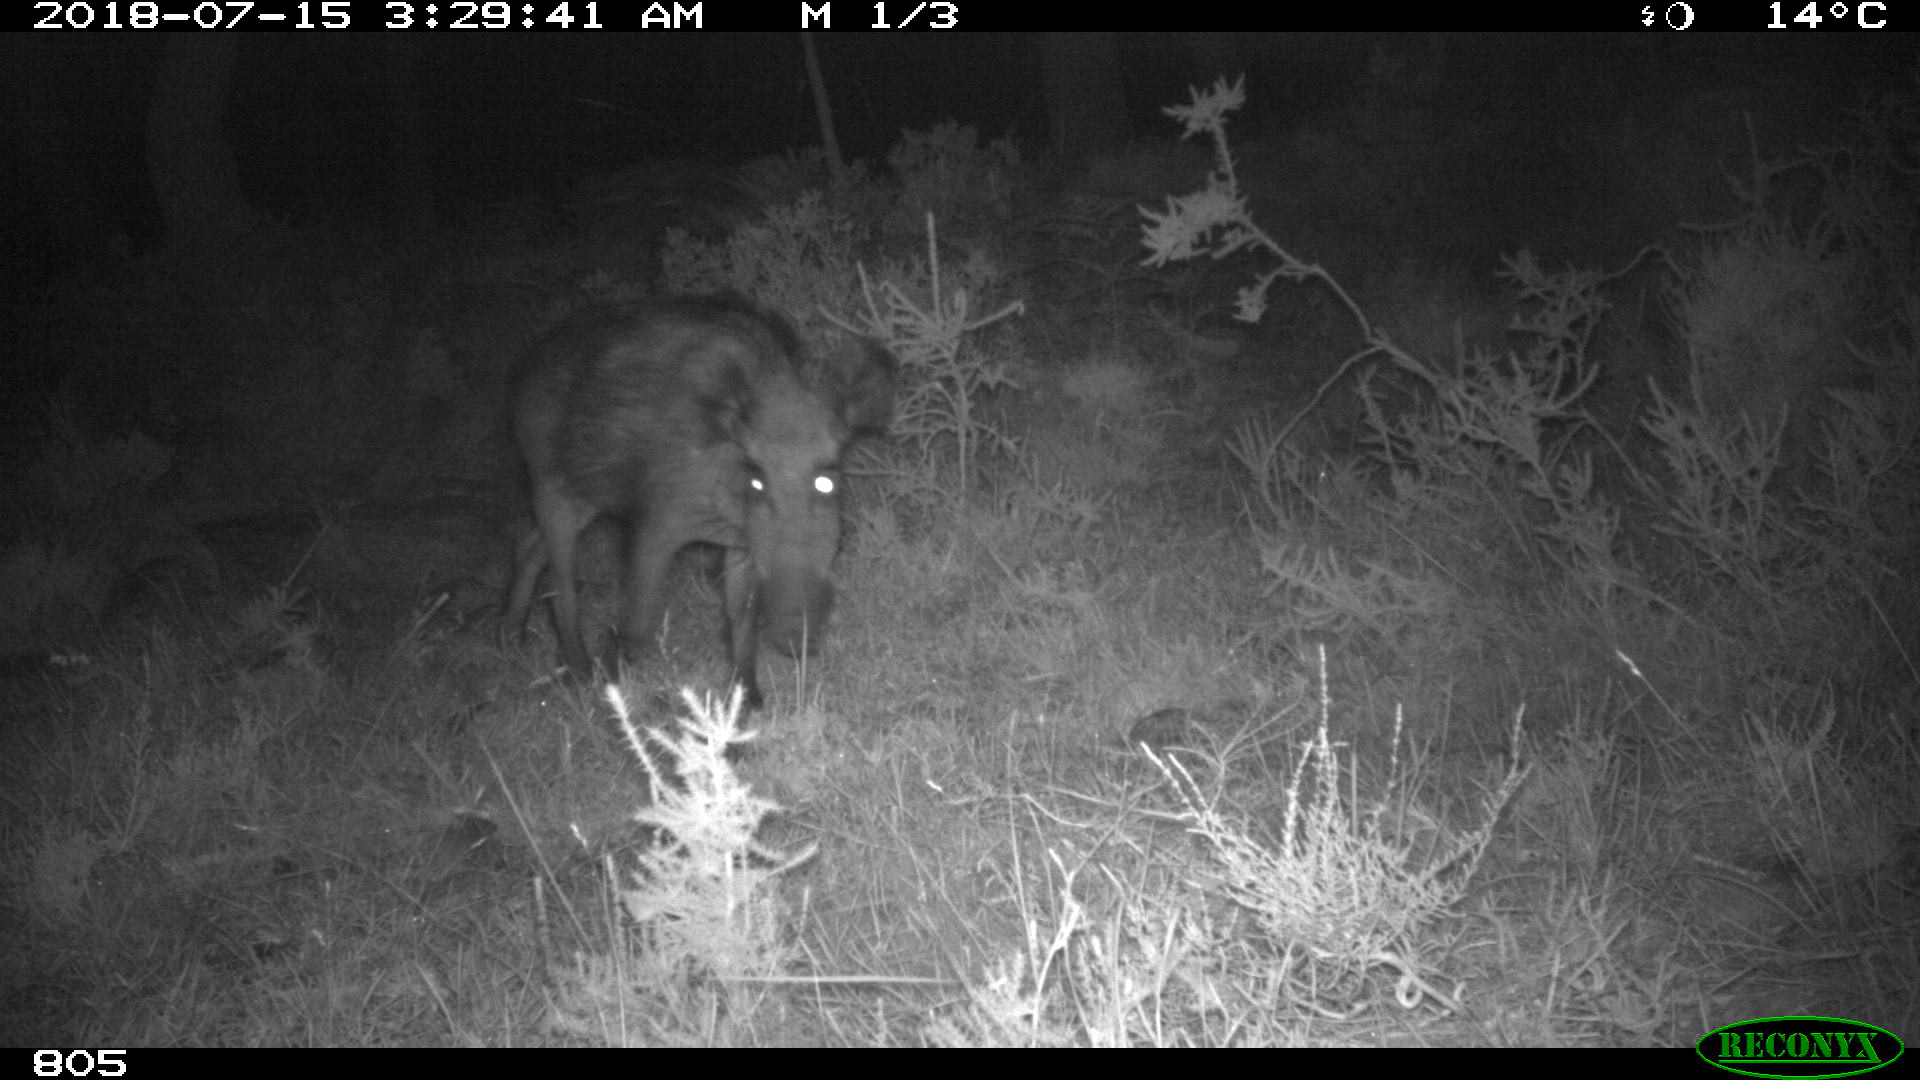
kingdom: Animalia
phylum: Chordata
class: Mammalia
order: Artiodactyla
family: Suidae
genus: Sus
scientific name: Sus scrofa
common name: Wild boar
